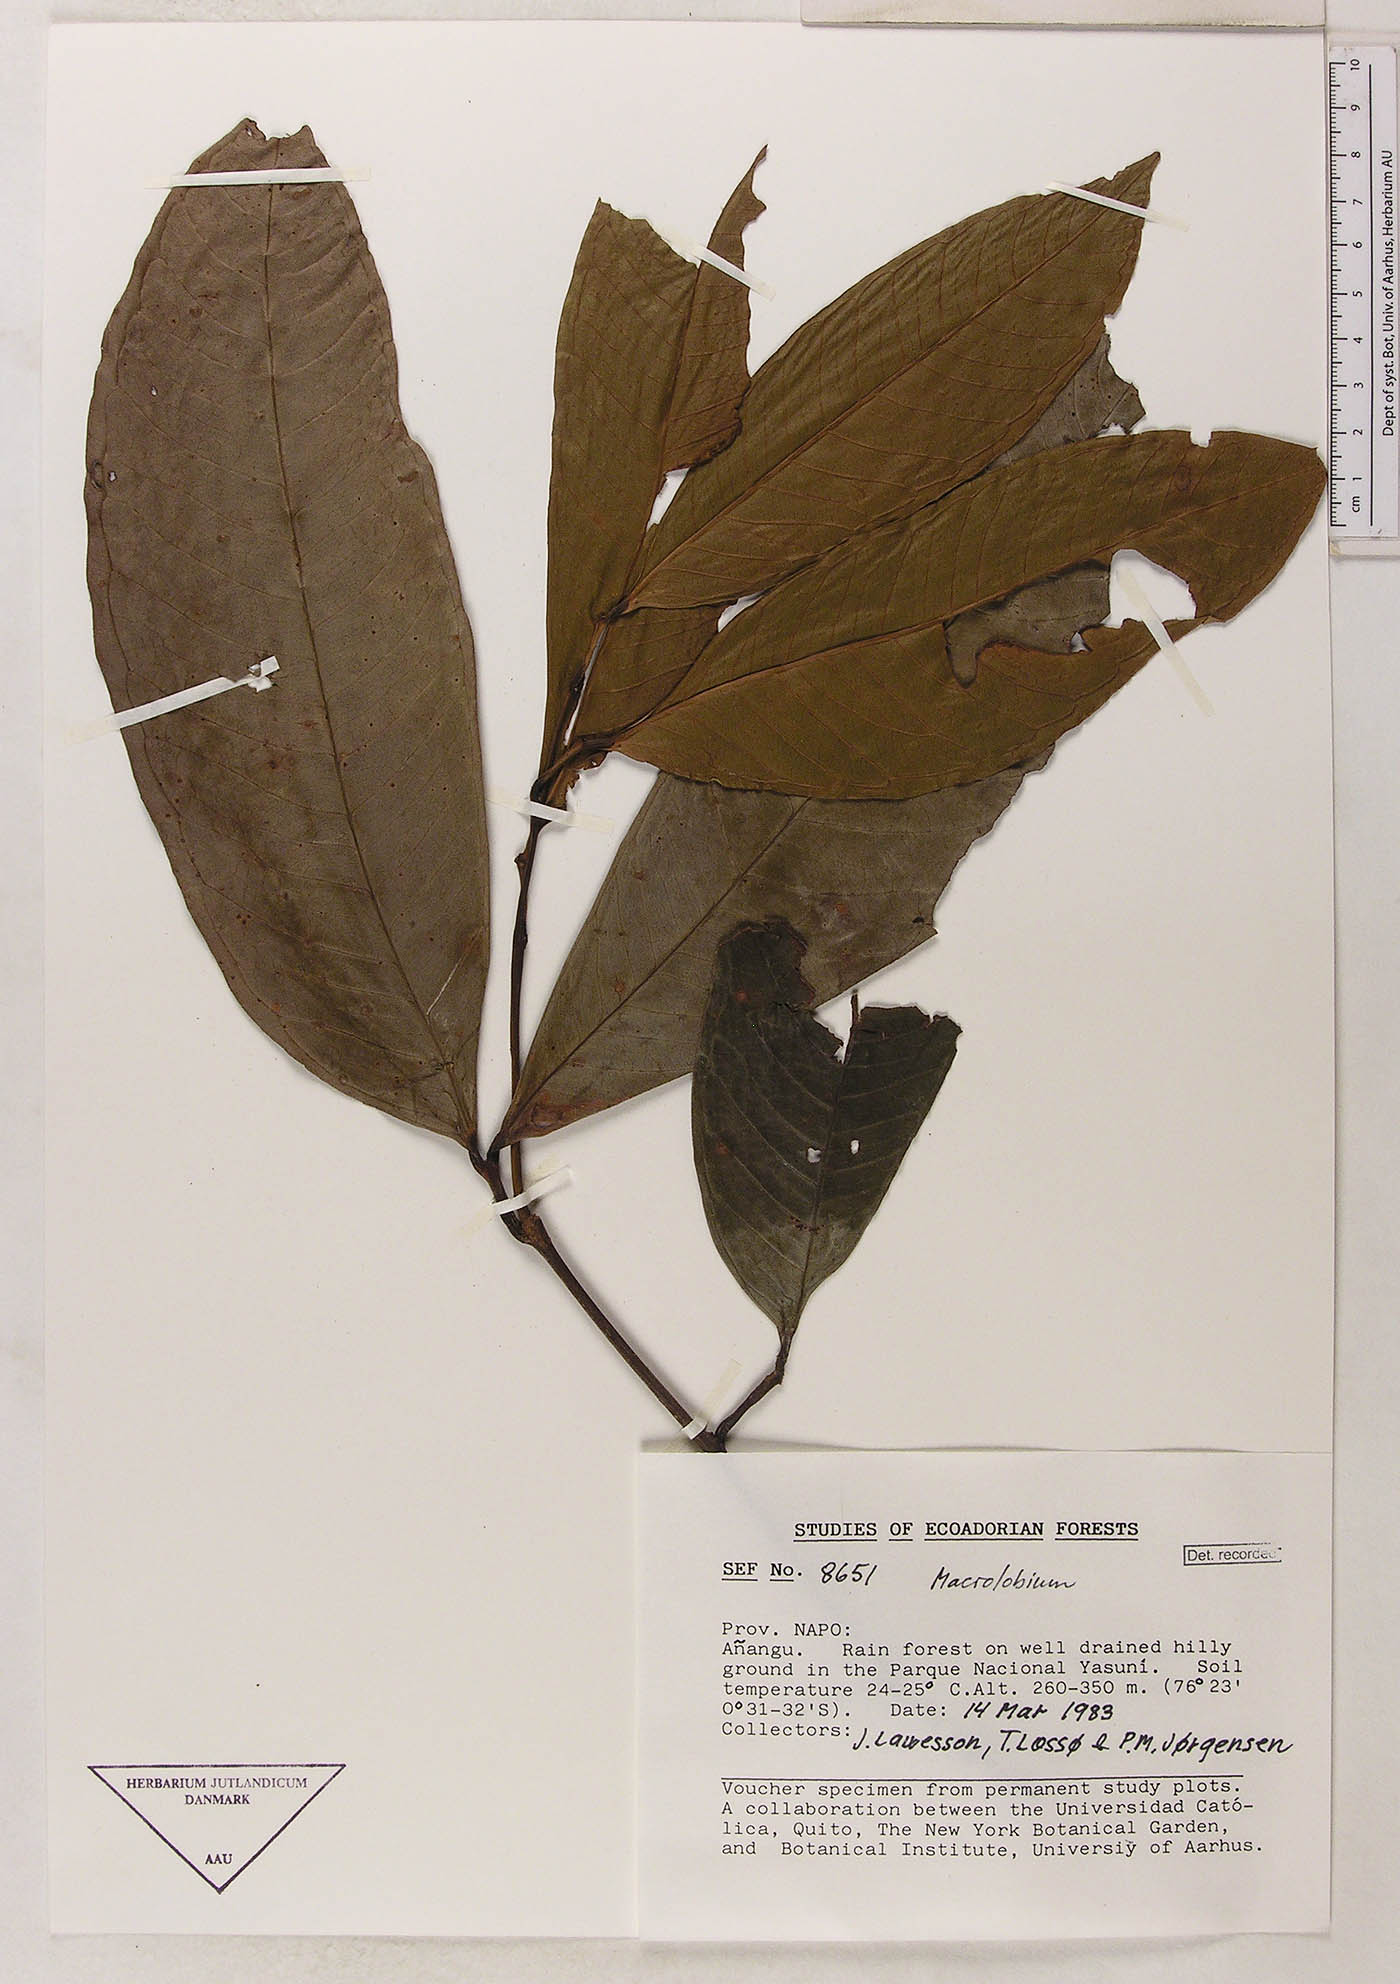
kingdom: Plantae
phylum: Tracheophyta
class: Magnoliopsida
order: Fabales
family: Fabaceae
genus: Macrolobium
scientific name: Macrolobium
